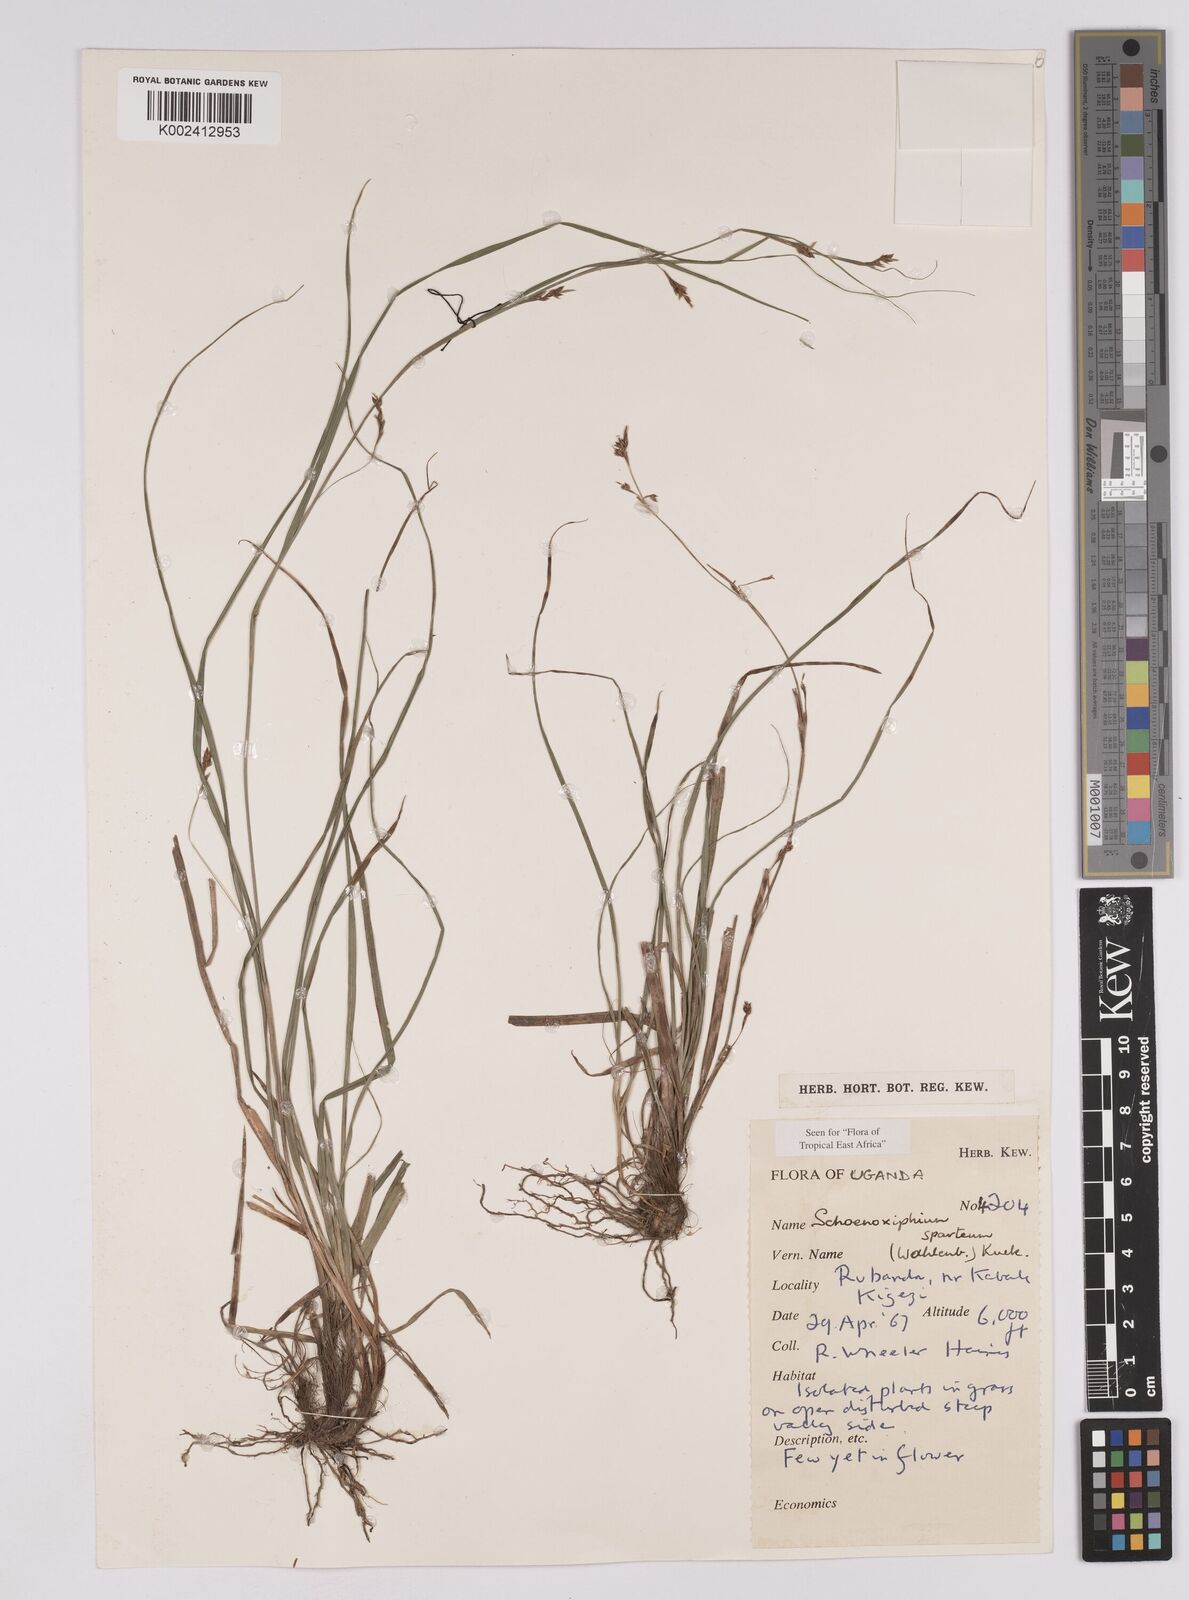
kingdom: Plantae
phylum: Tracheophyta
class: Liliopsida
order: Poales
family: Cyperaceae
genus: Carex
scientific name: Carex schimperiana
